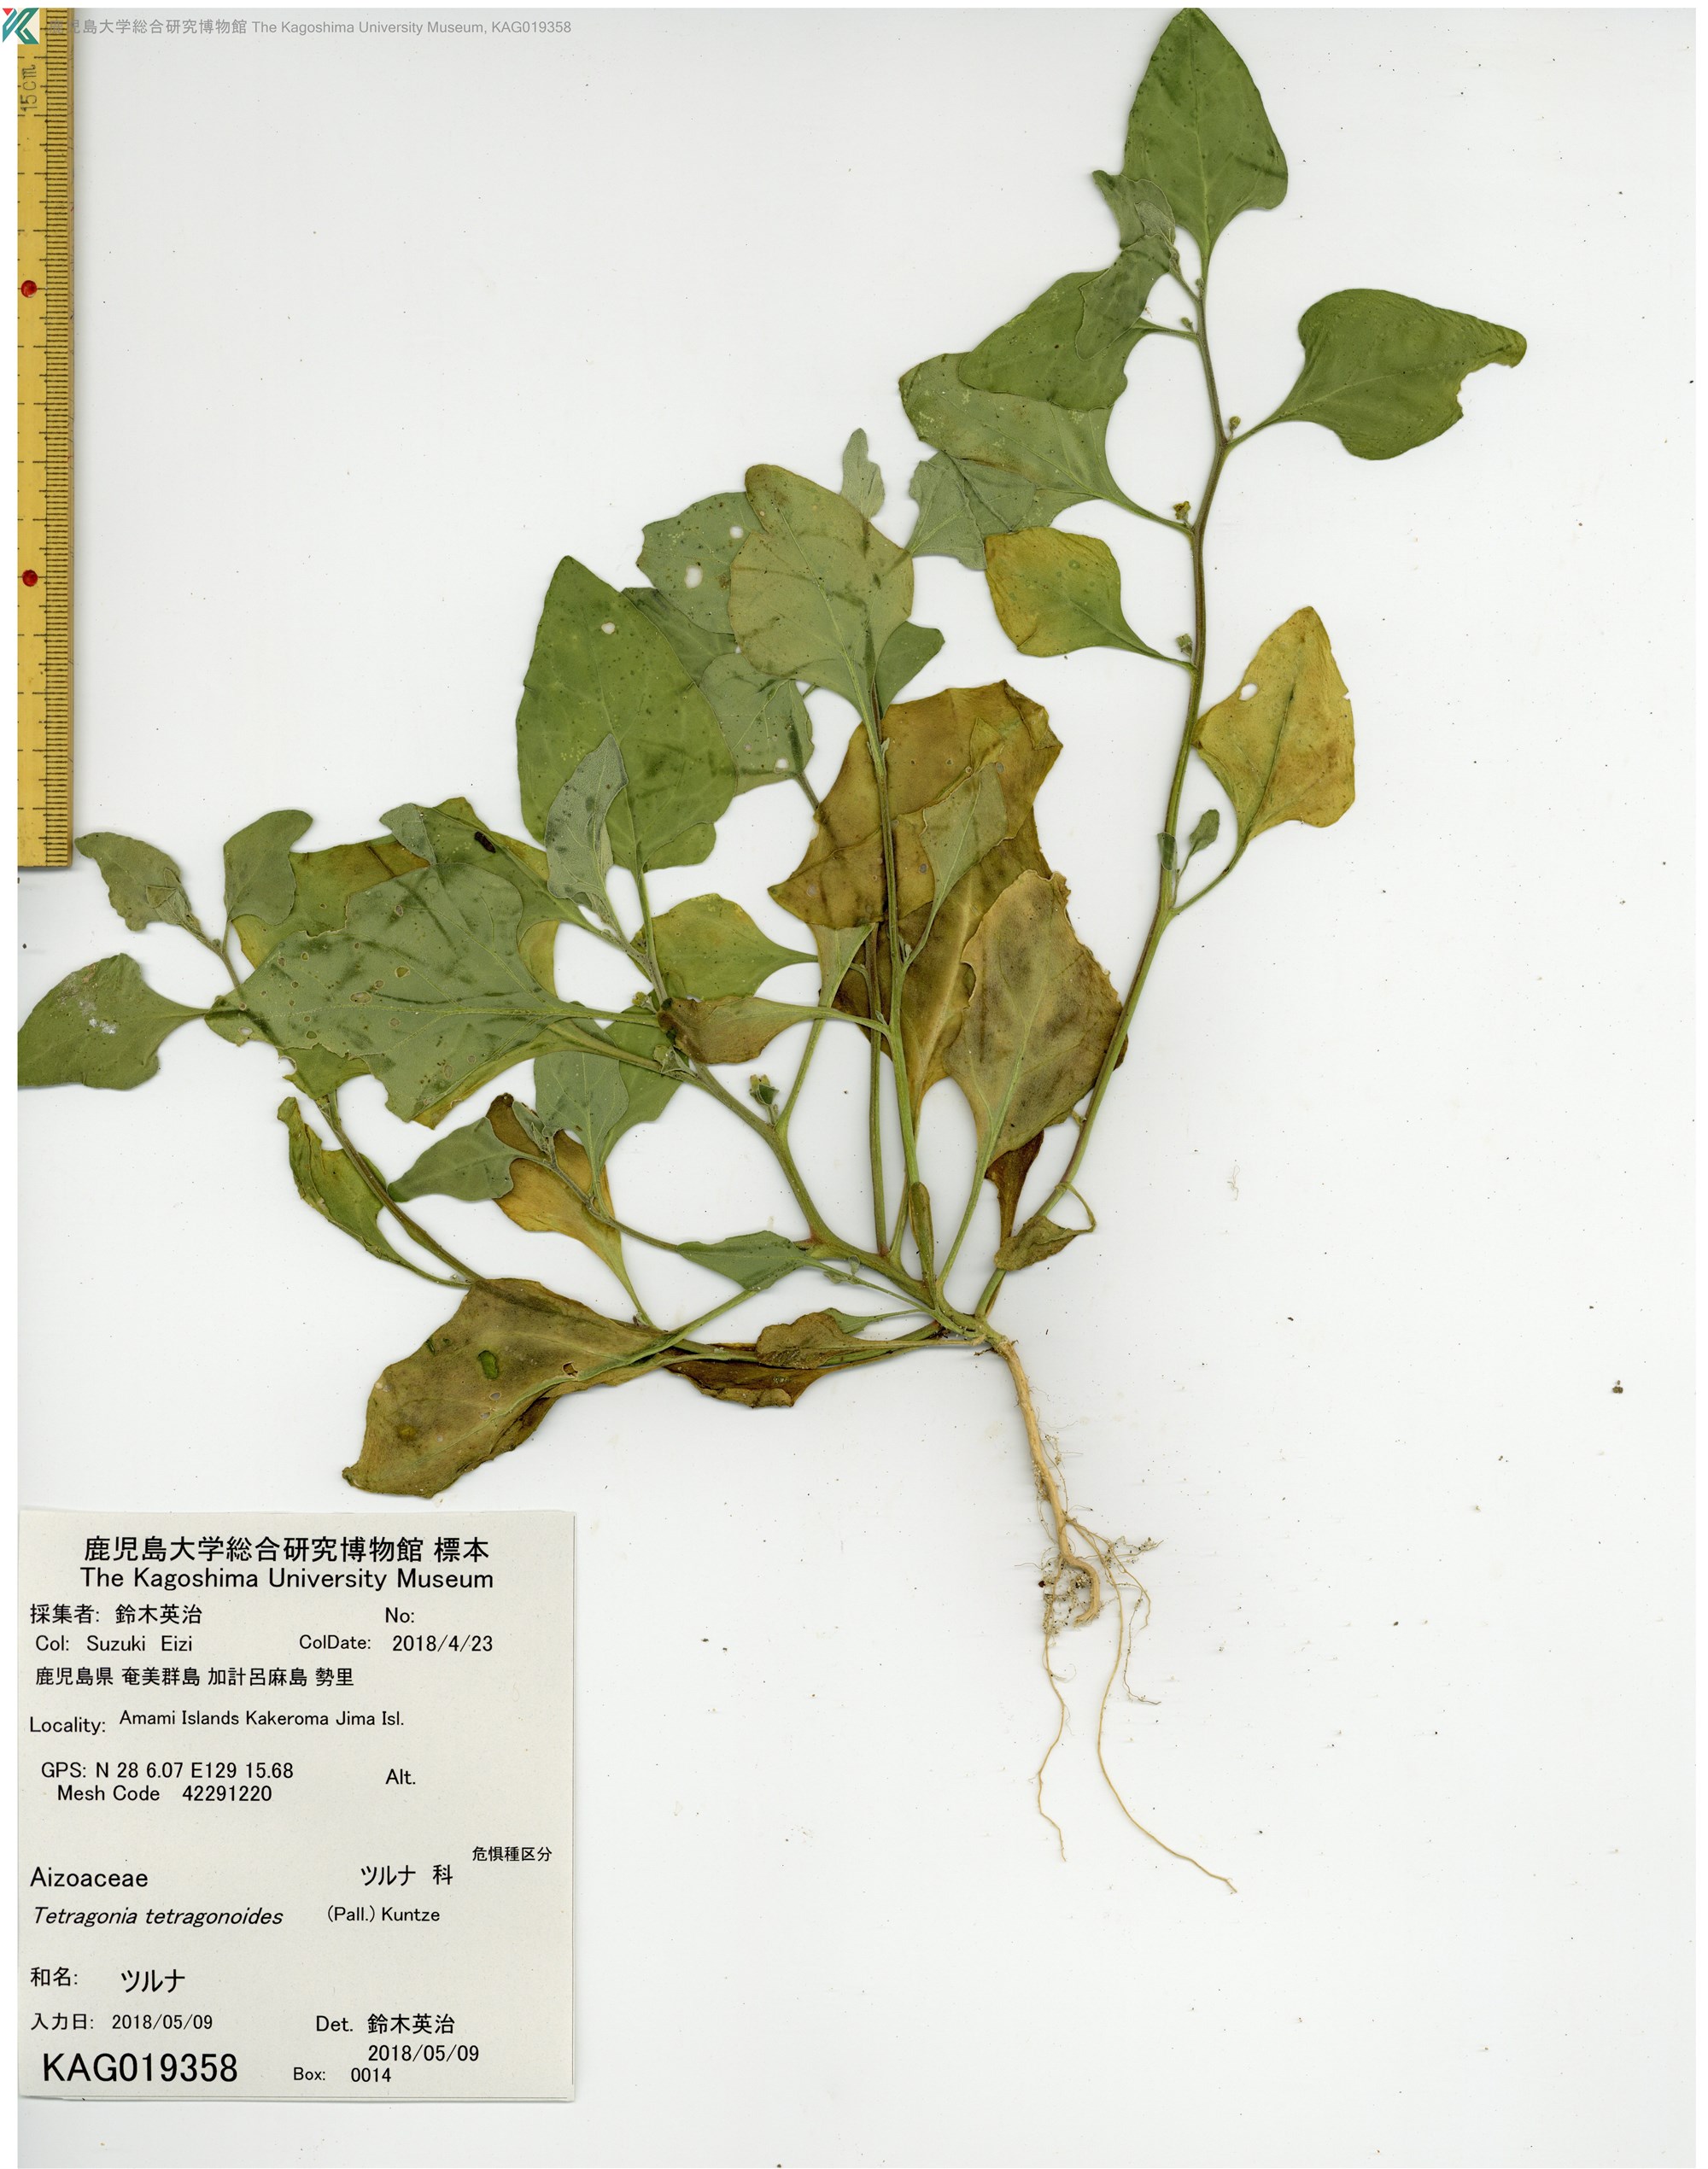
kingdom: Plantae
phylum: Tracheophyta
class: Magnoliopsida
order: Caryophyllales
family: Aizoaceae
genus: Tetragonia
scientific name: Tetragonia tetragonoides
